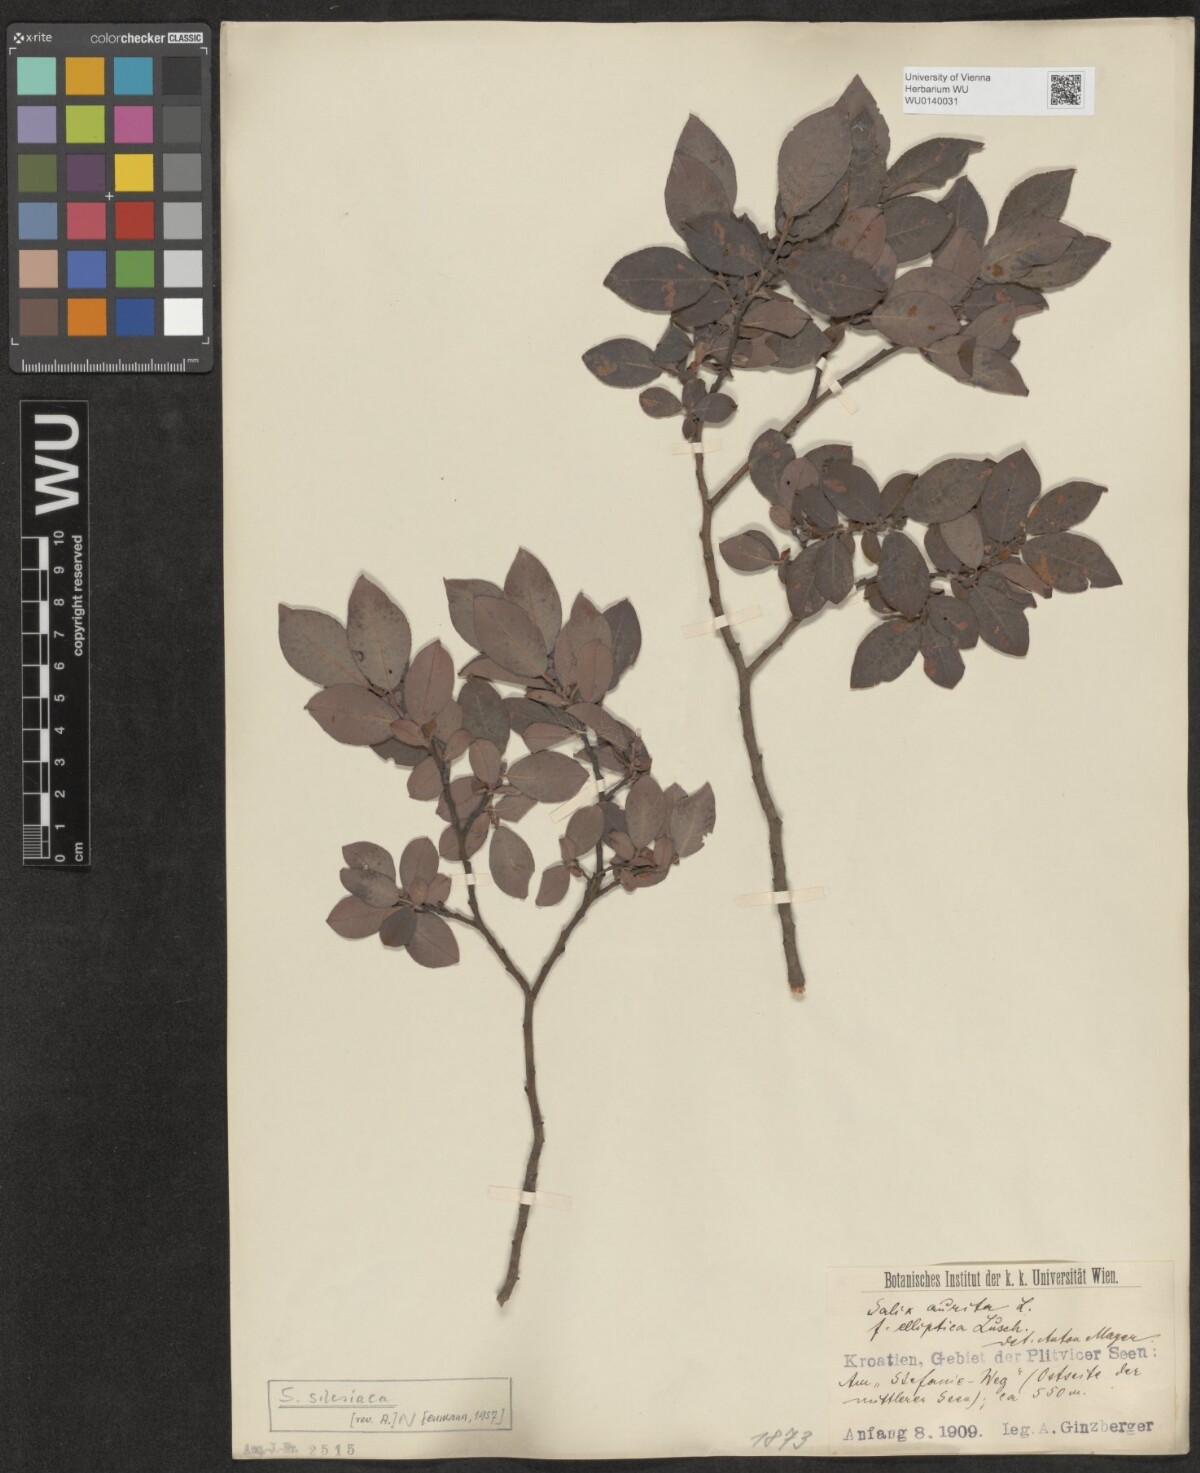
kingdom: Plantae
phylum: Tracheophyta
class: Magnoliopsida
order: Malpighiales
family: Salicaceae
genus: Salix
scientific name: Salix silesiaca
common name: Silesian willow
